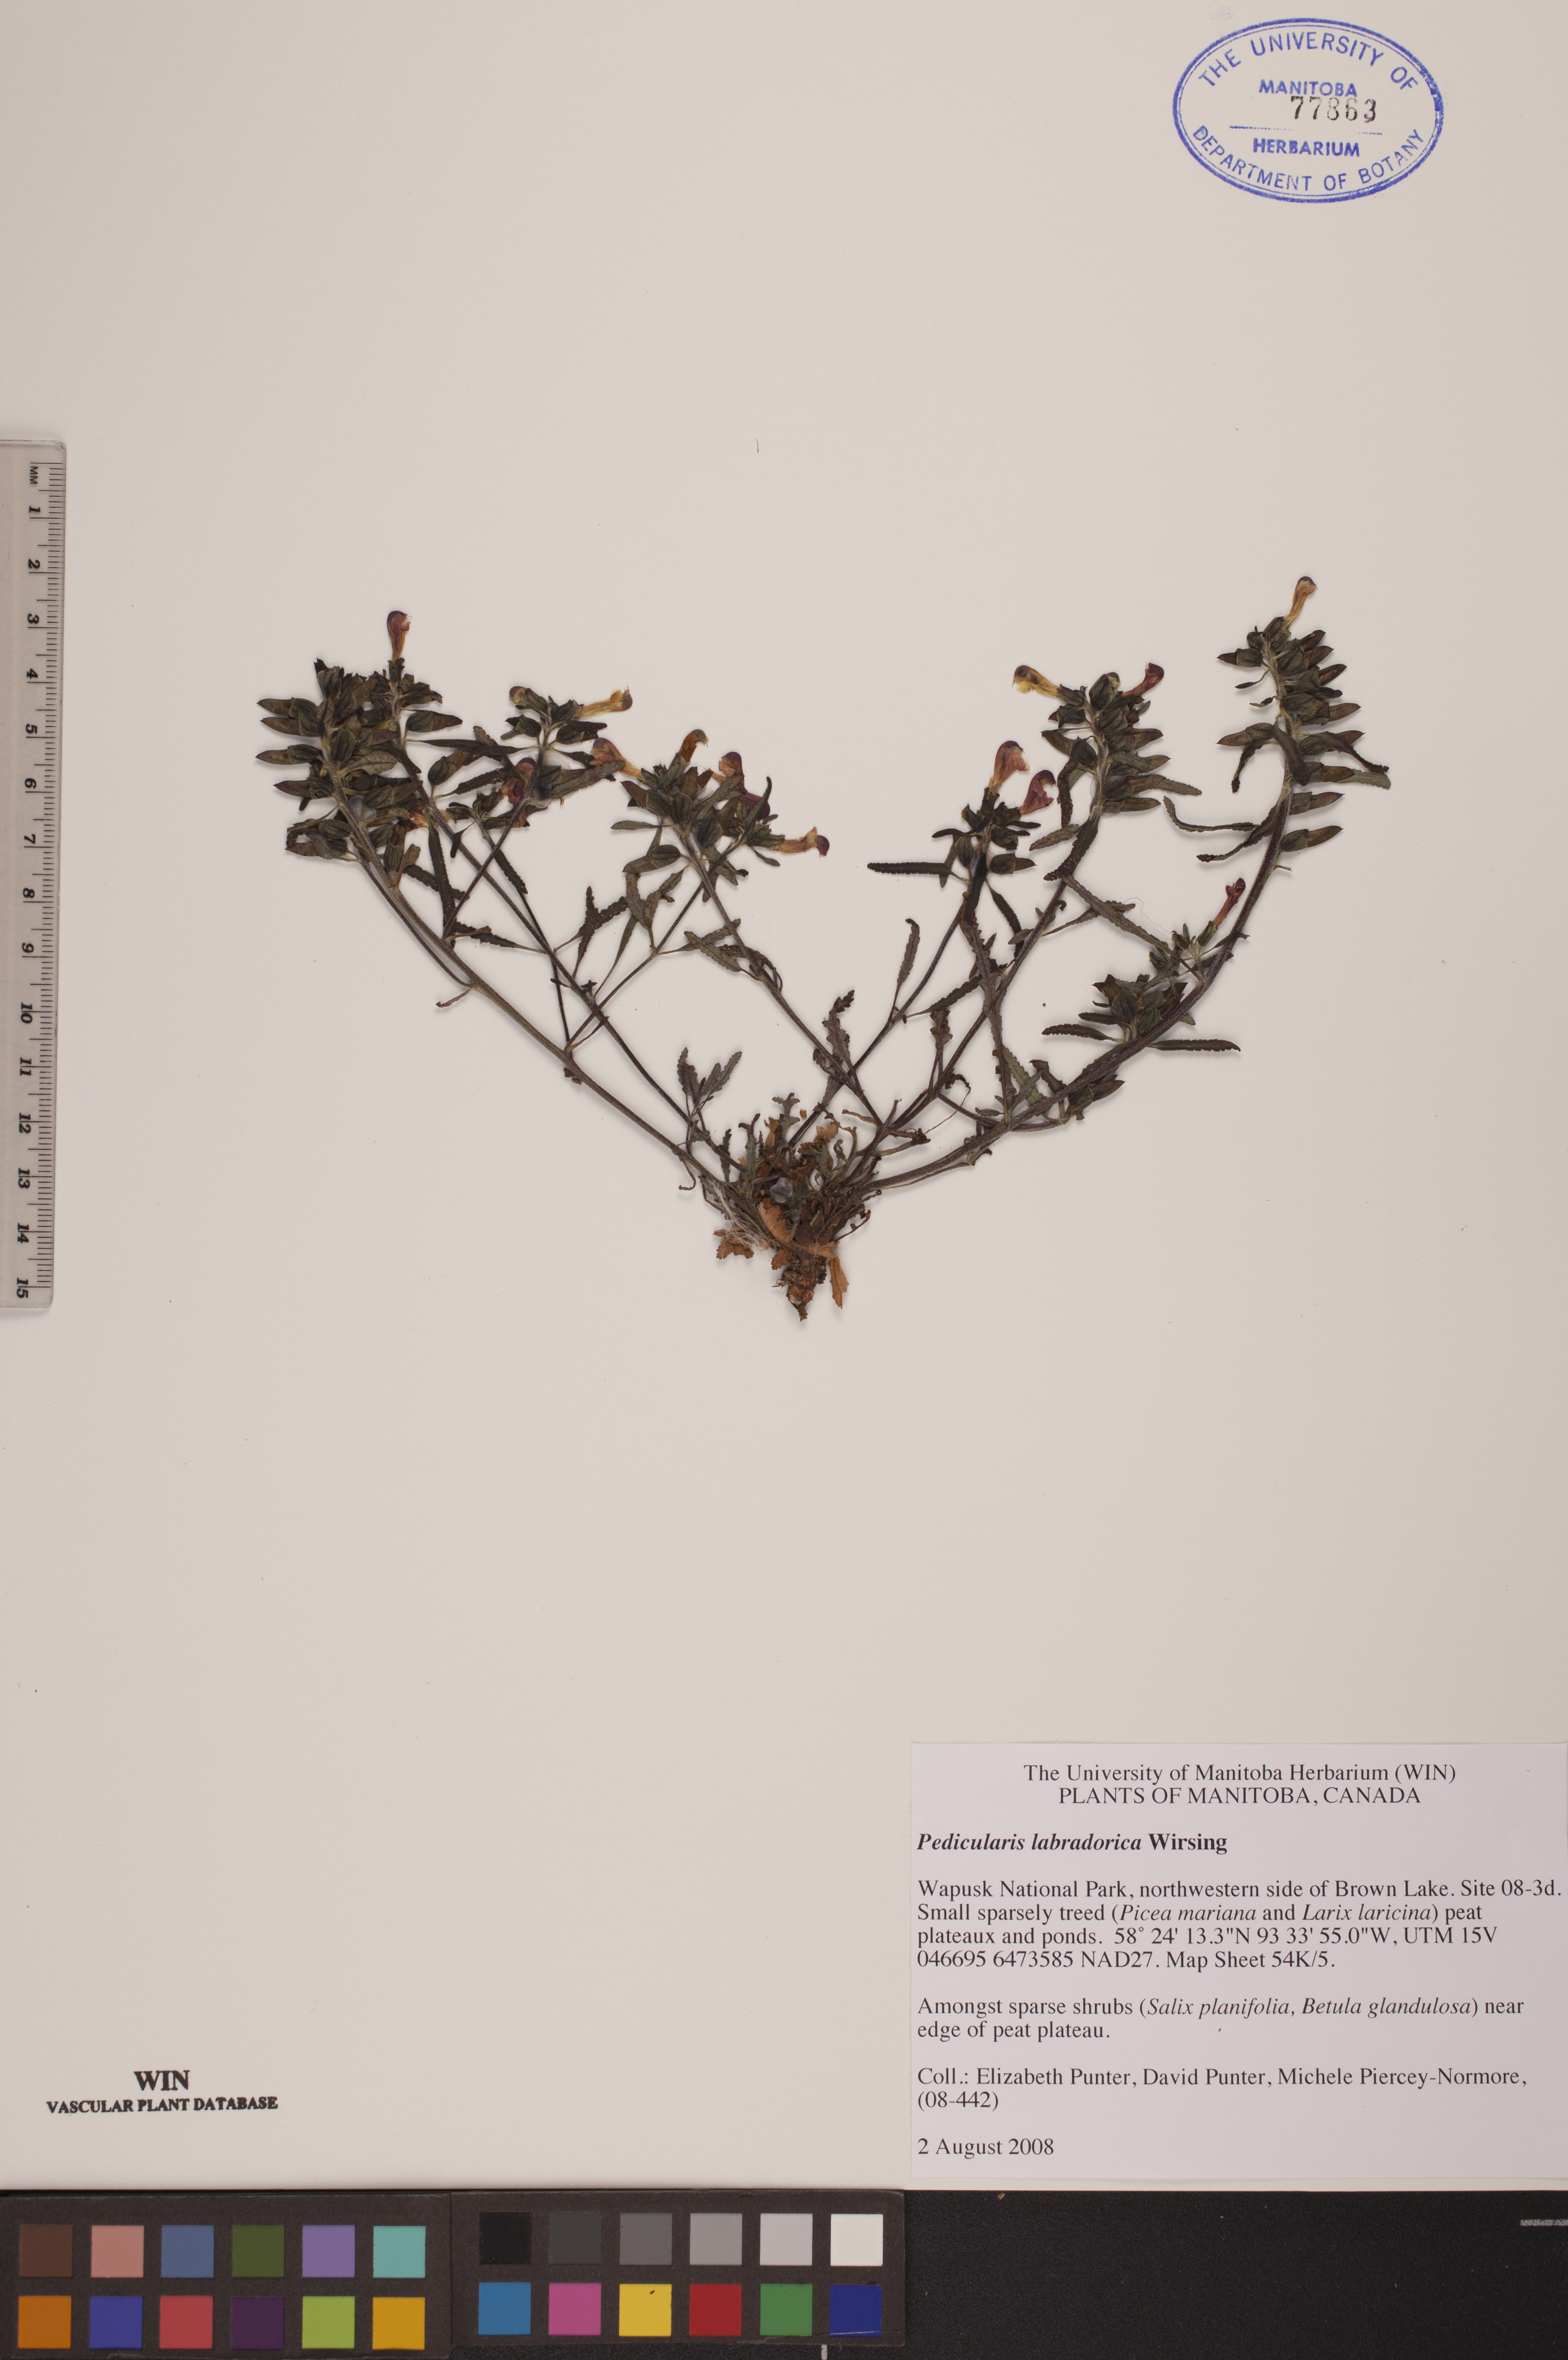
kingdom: Plantae
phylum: Tracheophyta
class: Magnoliopsida
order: Lamiales
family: Orobanchaceae
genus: Pedicularis
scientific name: Pedicularis labradorica
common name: Labrador lousewort
